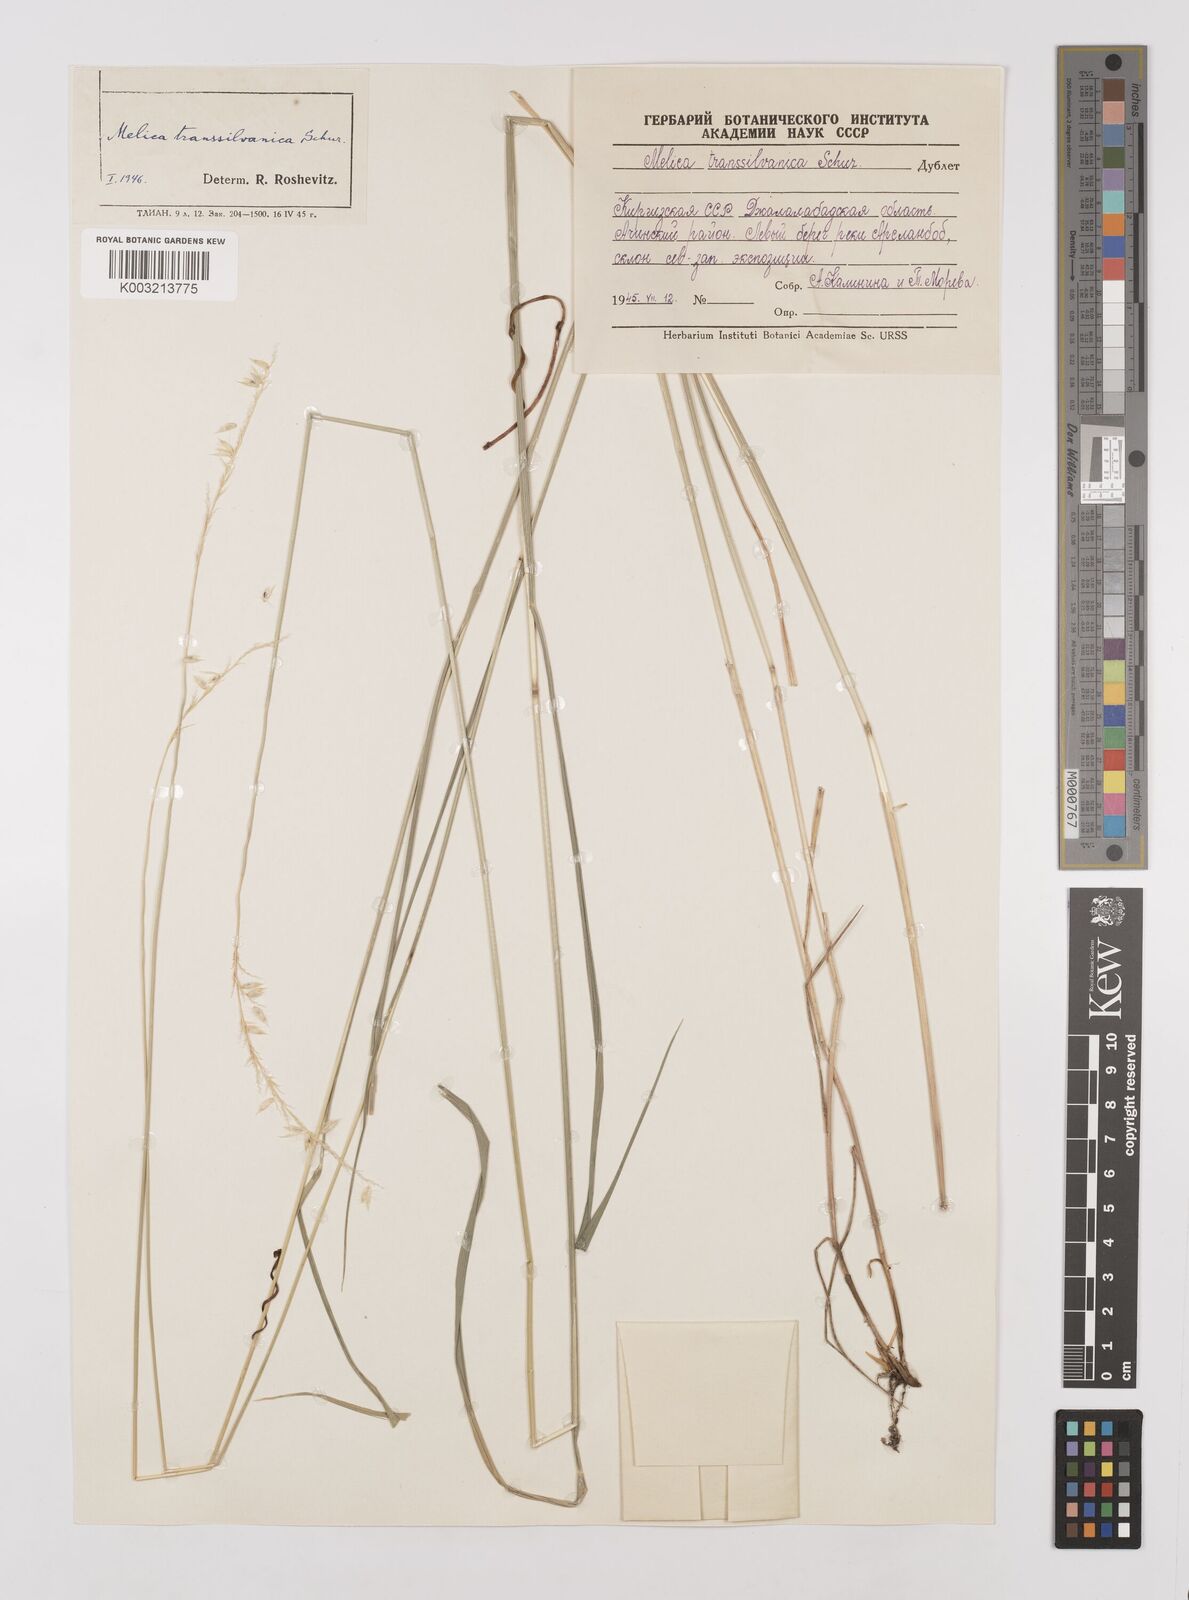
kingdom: Plantae
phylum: Tracheophyta
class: Liliopsida
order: Poales
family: Poaceae
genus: Melica
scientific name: Melica transsilvanica
